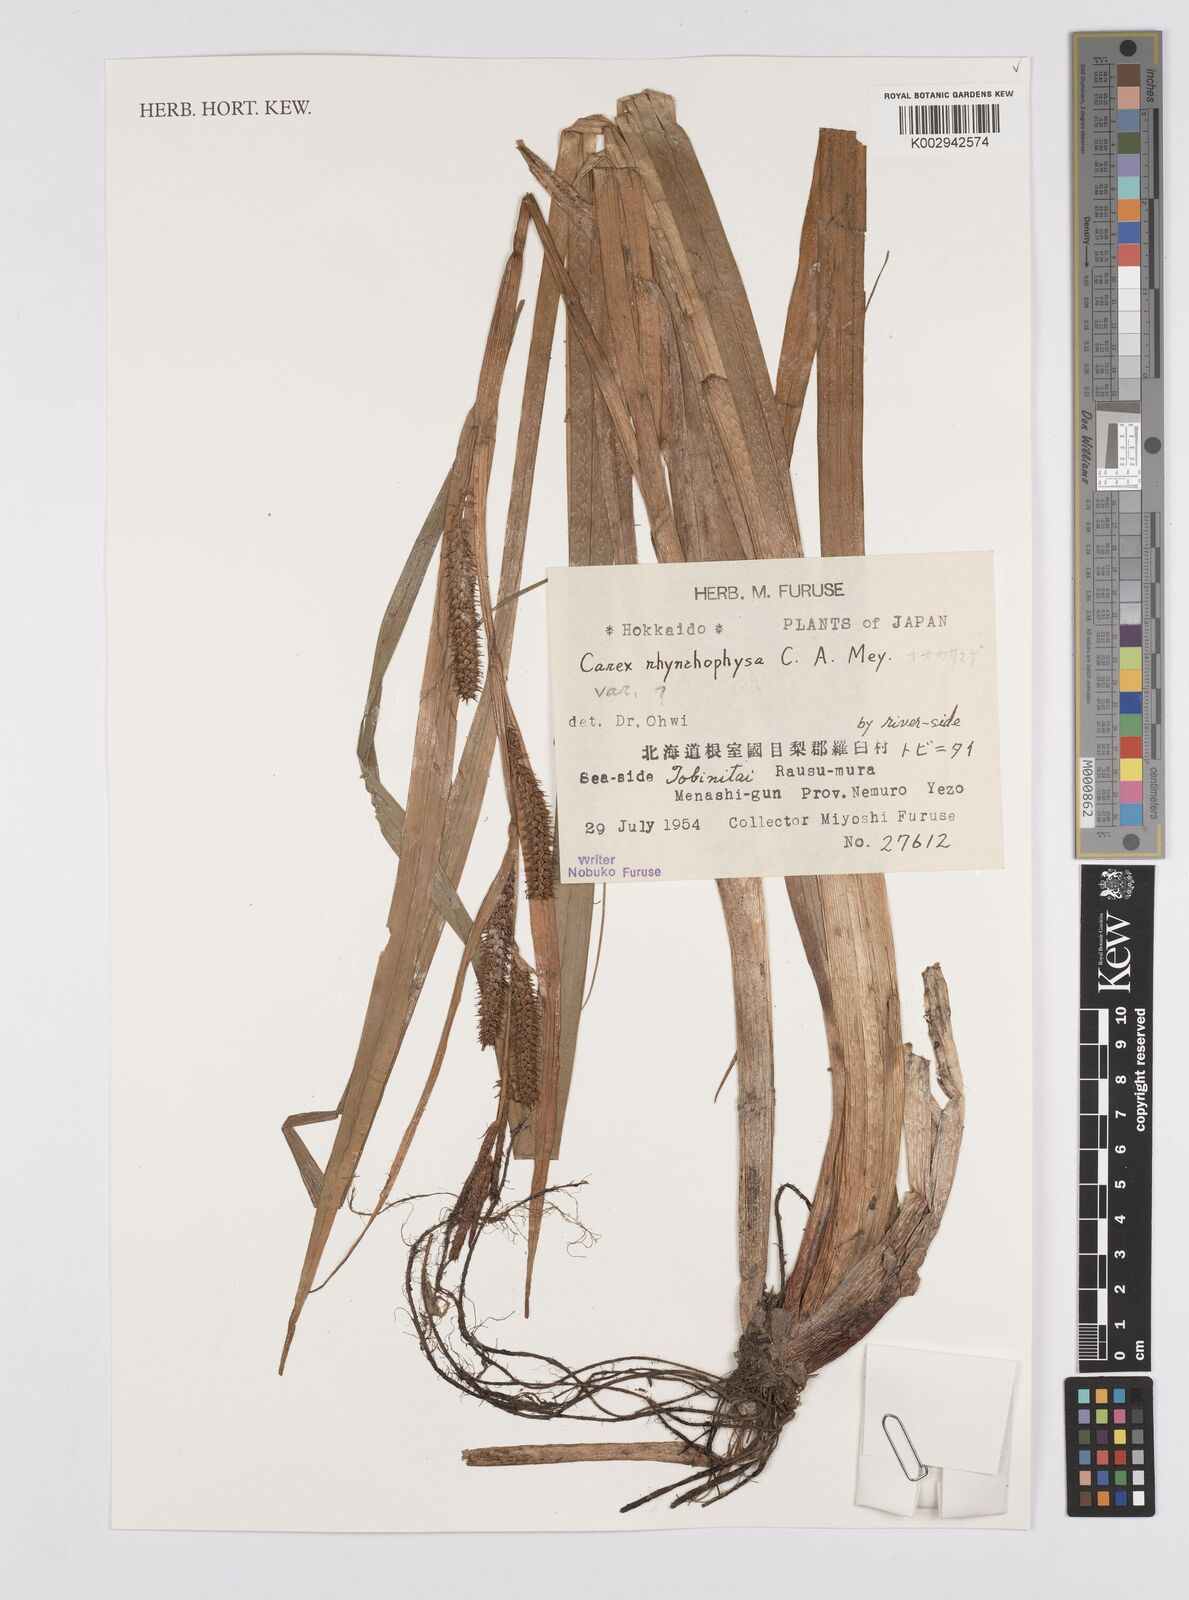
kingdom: Plantae
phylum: Tracheophyta
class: Liliopsida
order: Poales
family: Cyperaceae
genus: Carex
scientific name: Carex utriculata
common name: Beaked sedge
